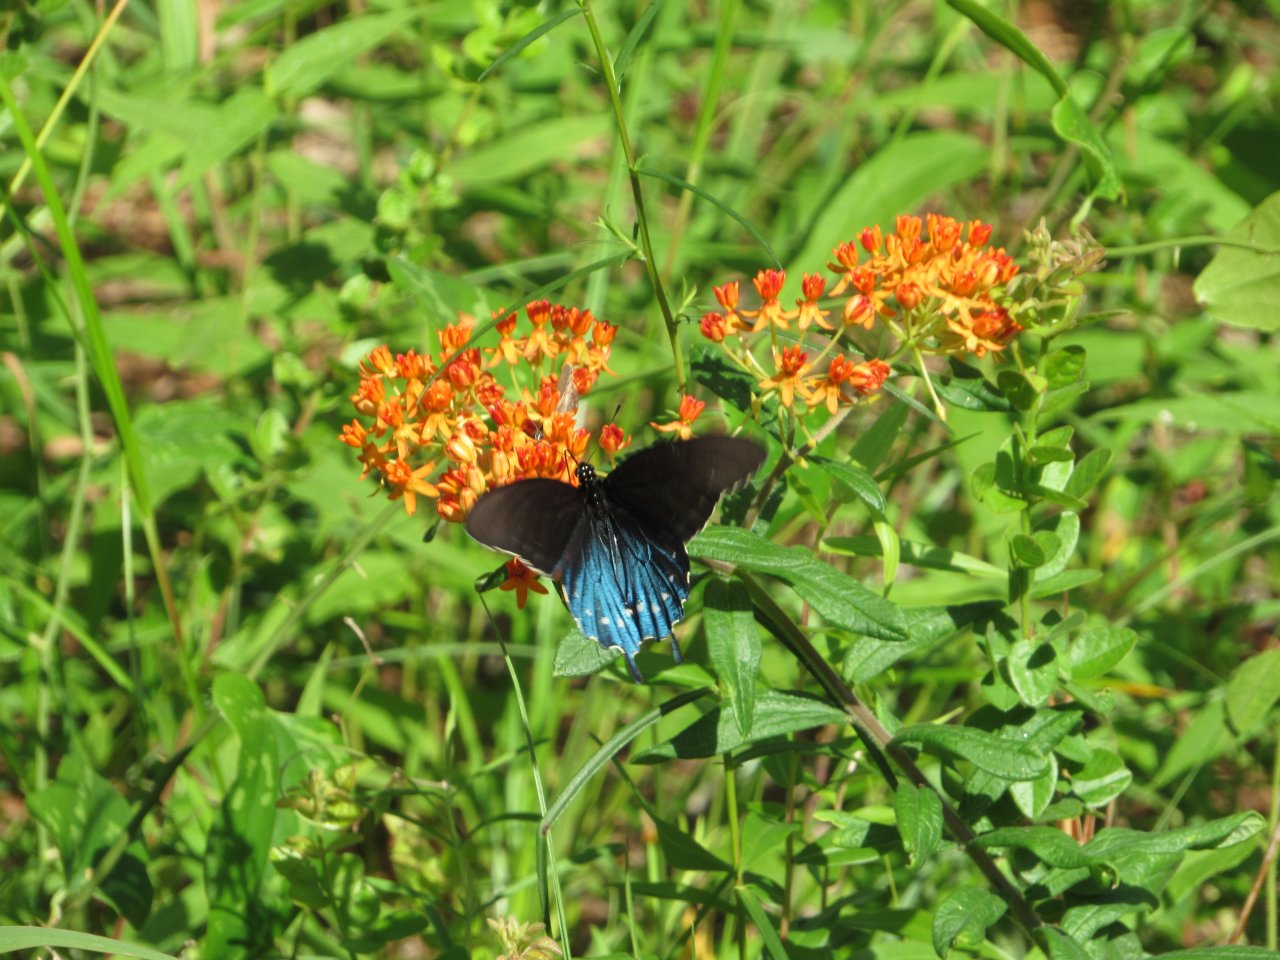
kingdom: Animalia
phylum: Arthropoda
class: Insecta
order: Lepidoptera
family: Papilionidae
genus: Battus
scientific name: Battus philenor
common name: Pipevine Swallowtail
